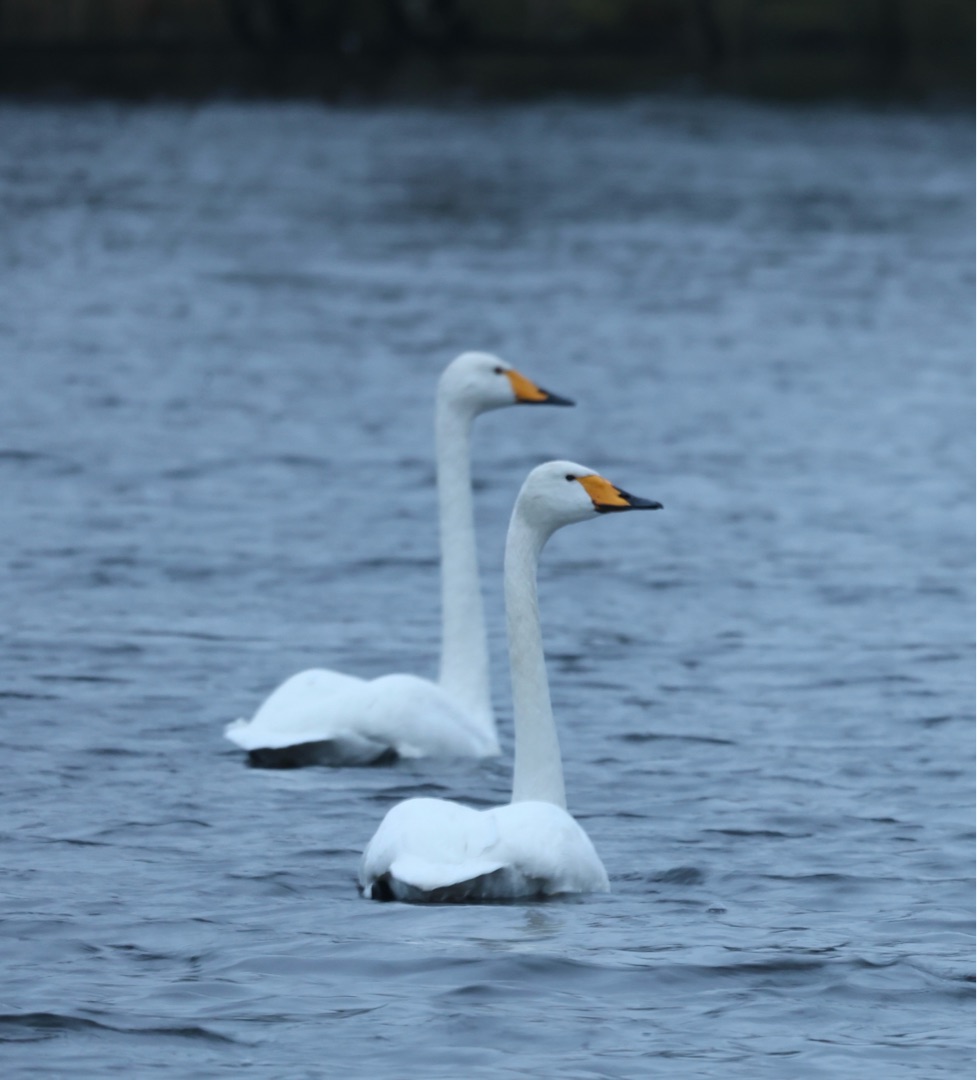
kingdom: Animalia
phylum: Chordata
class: Aves
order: Anseriformes
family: Anatidae
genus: Cygnus
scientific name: Cygnus cygnus
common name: Sangsvane
